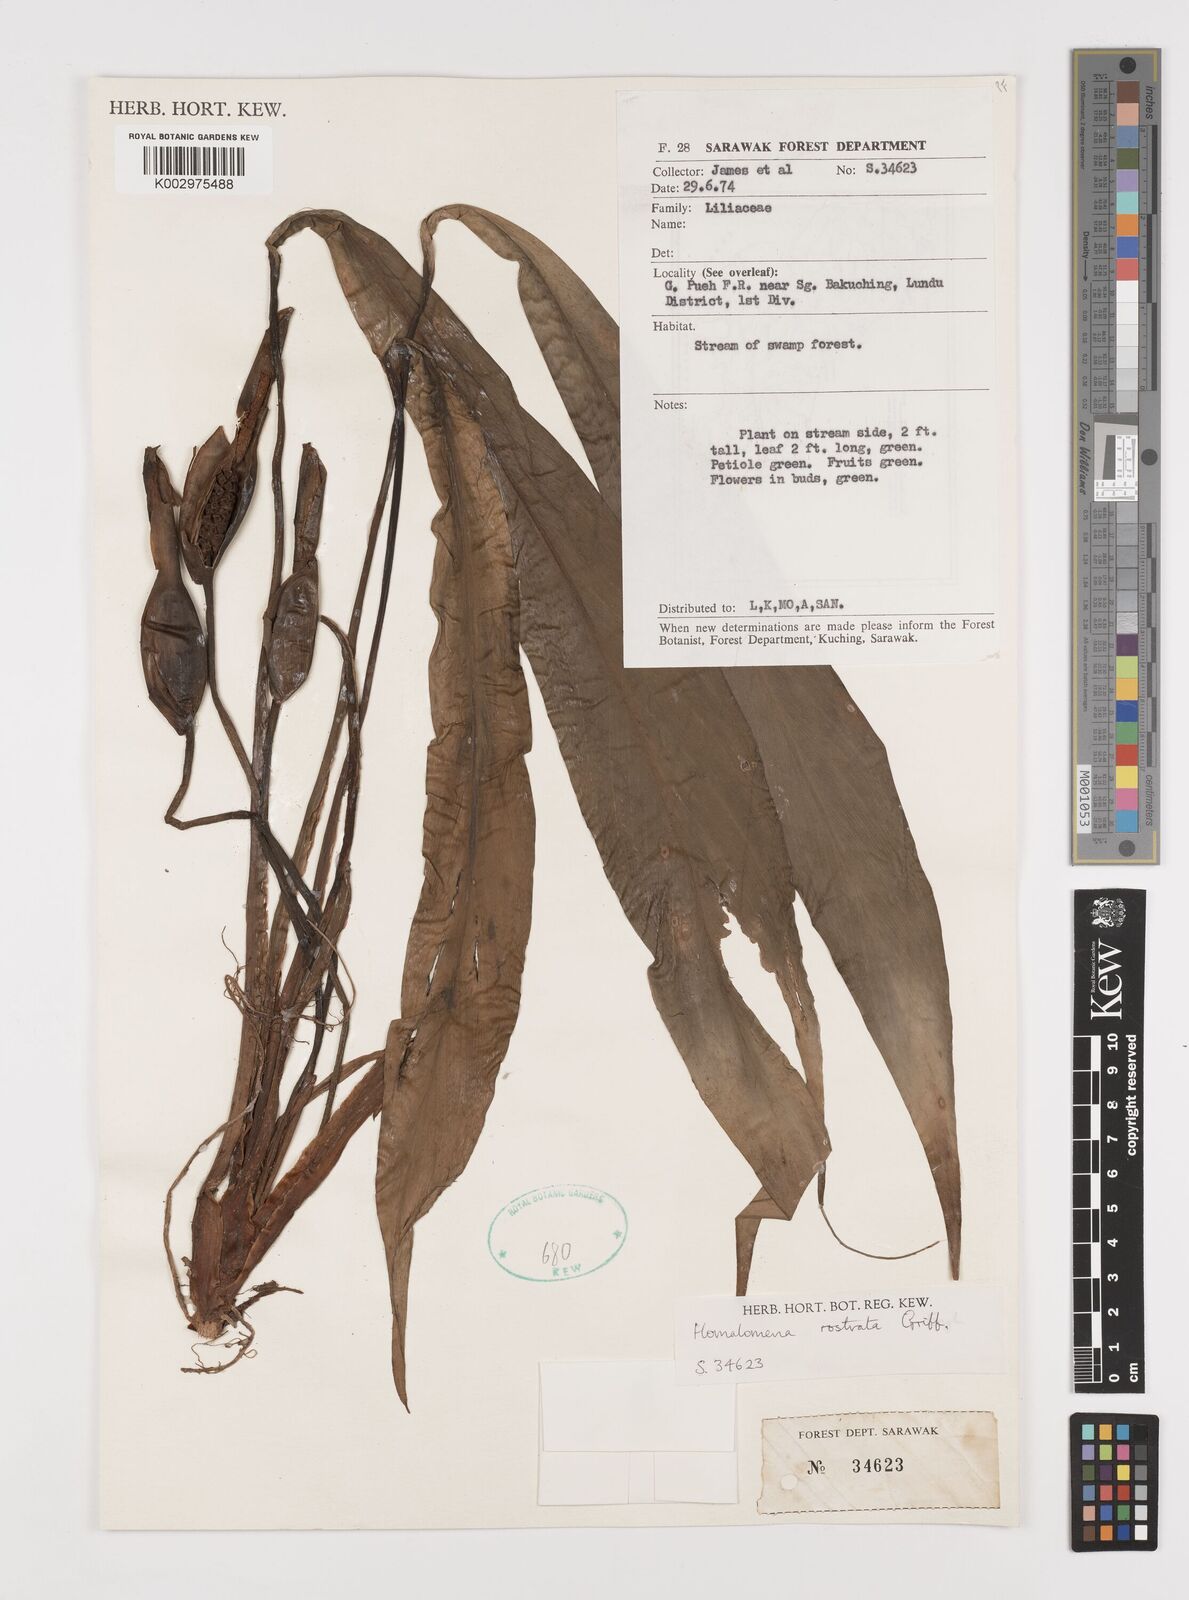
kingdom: Plantae
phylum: Tracheophyta
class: Liliopsida
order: Alismatales
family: Araceae
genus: Homalomena
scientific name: Homalomena rostrata
